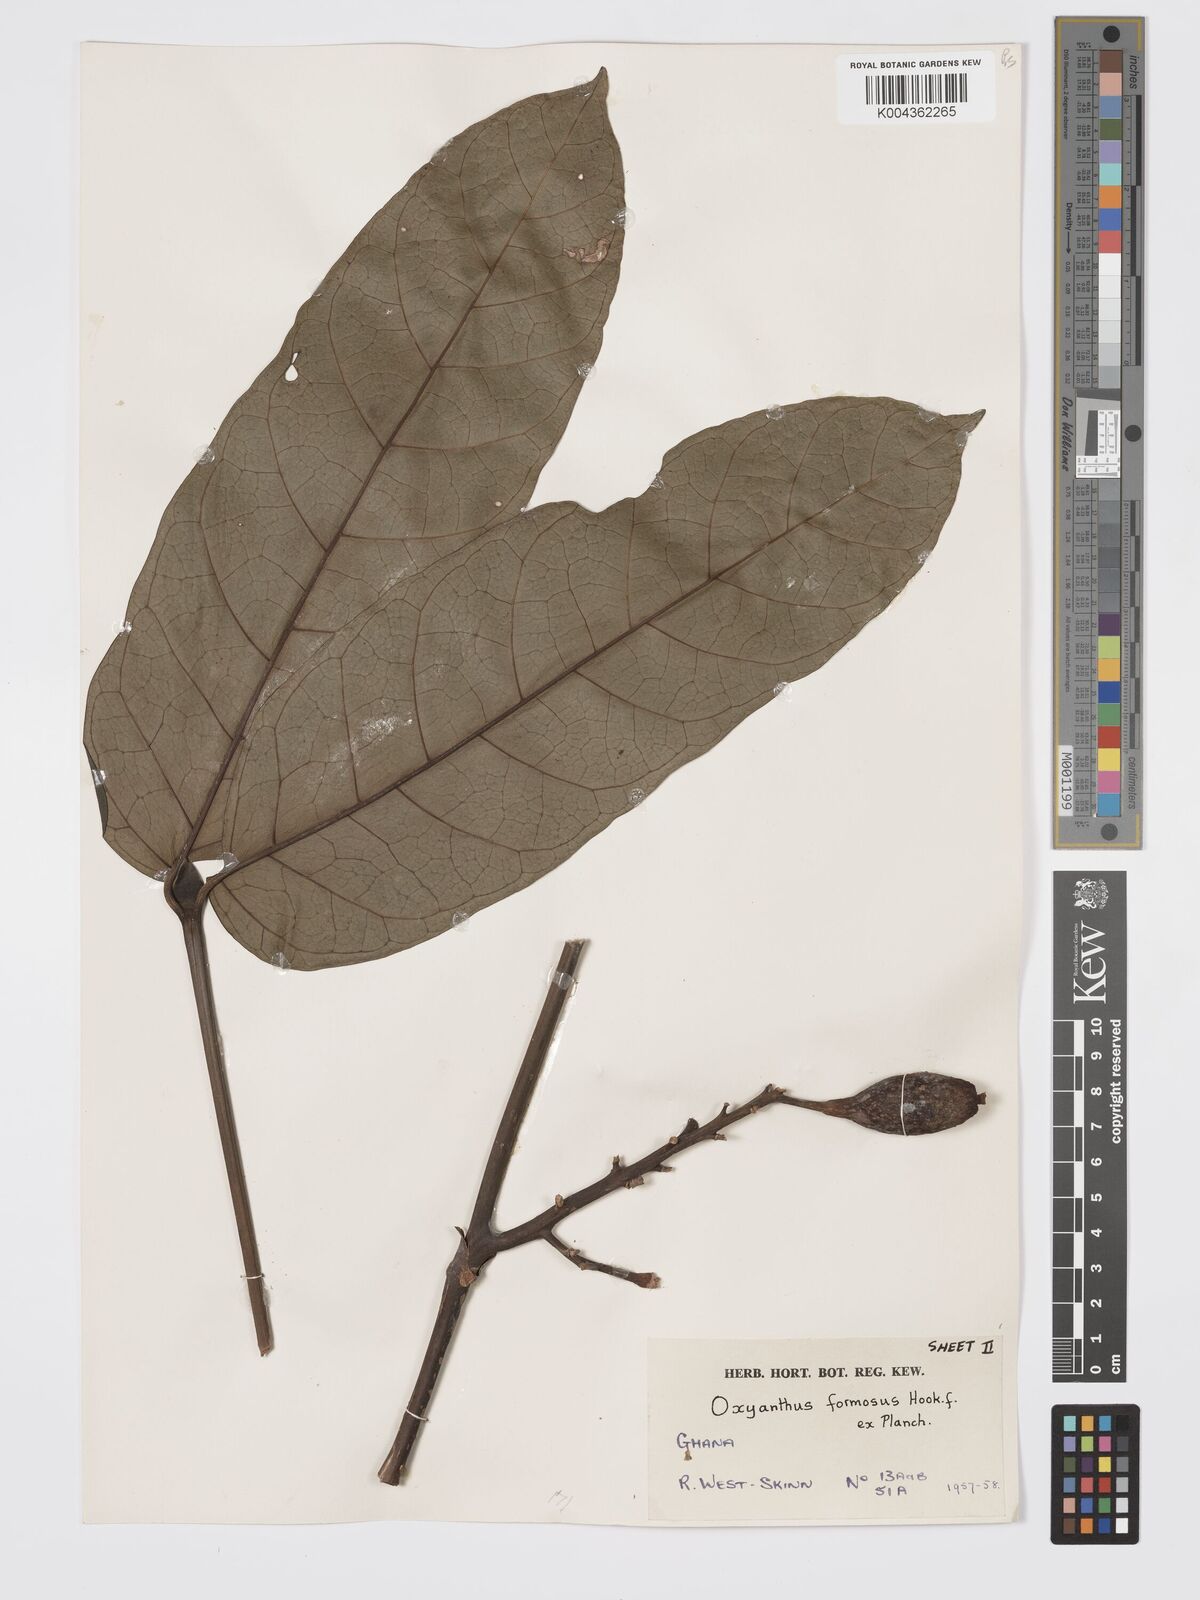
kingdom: Plantae
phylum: Tracheophyta
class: Magnoliopsida
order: Gentianales
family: Rubiaceae
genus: Oxyanthus
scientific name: Oxyanthus formosus
